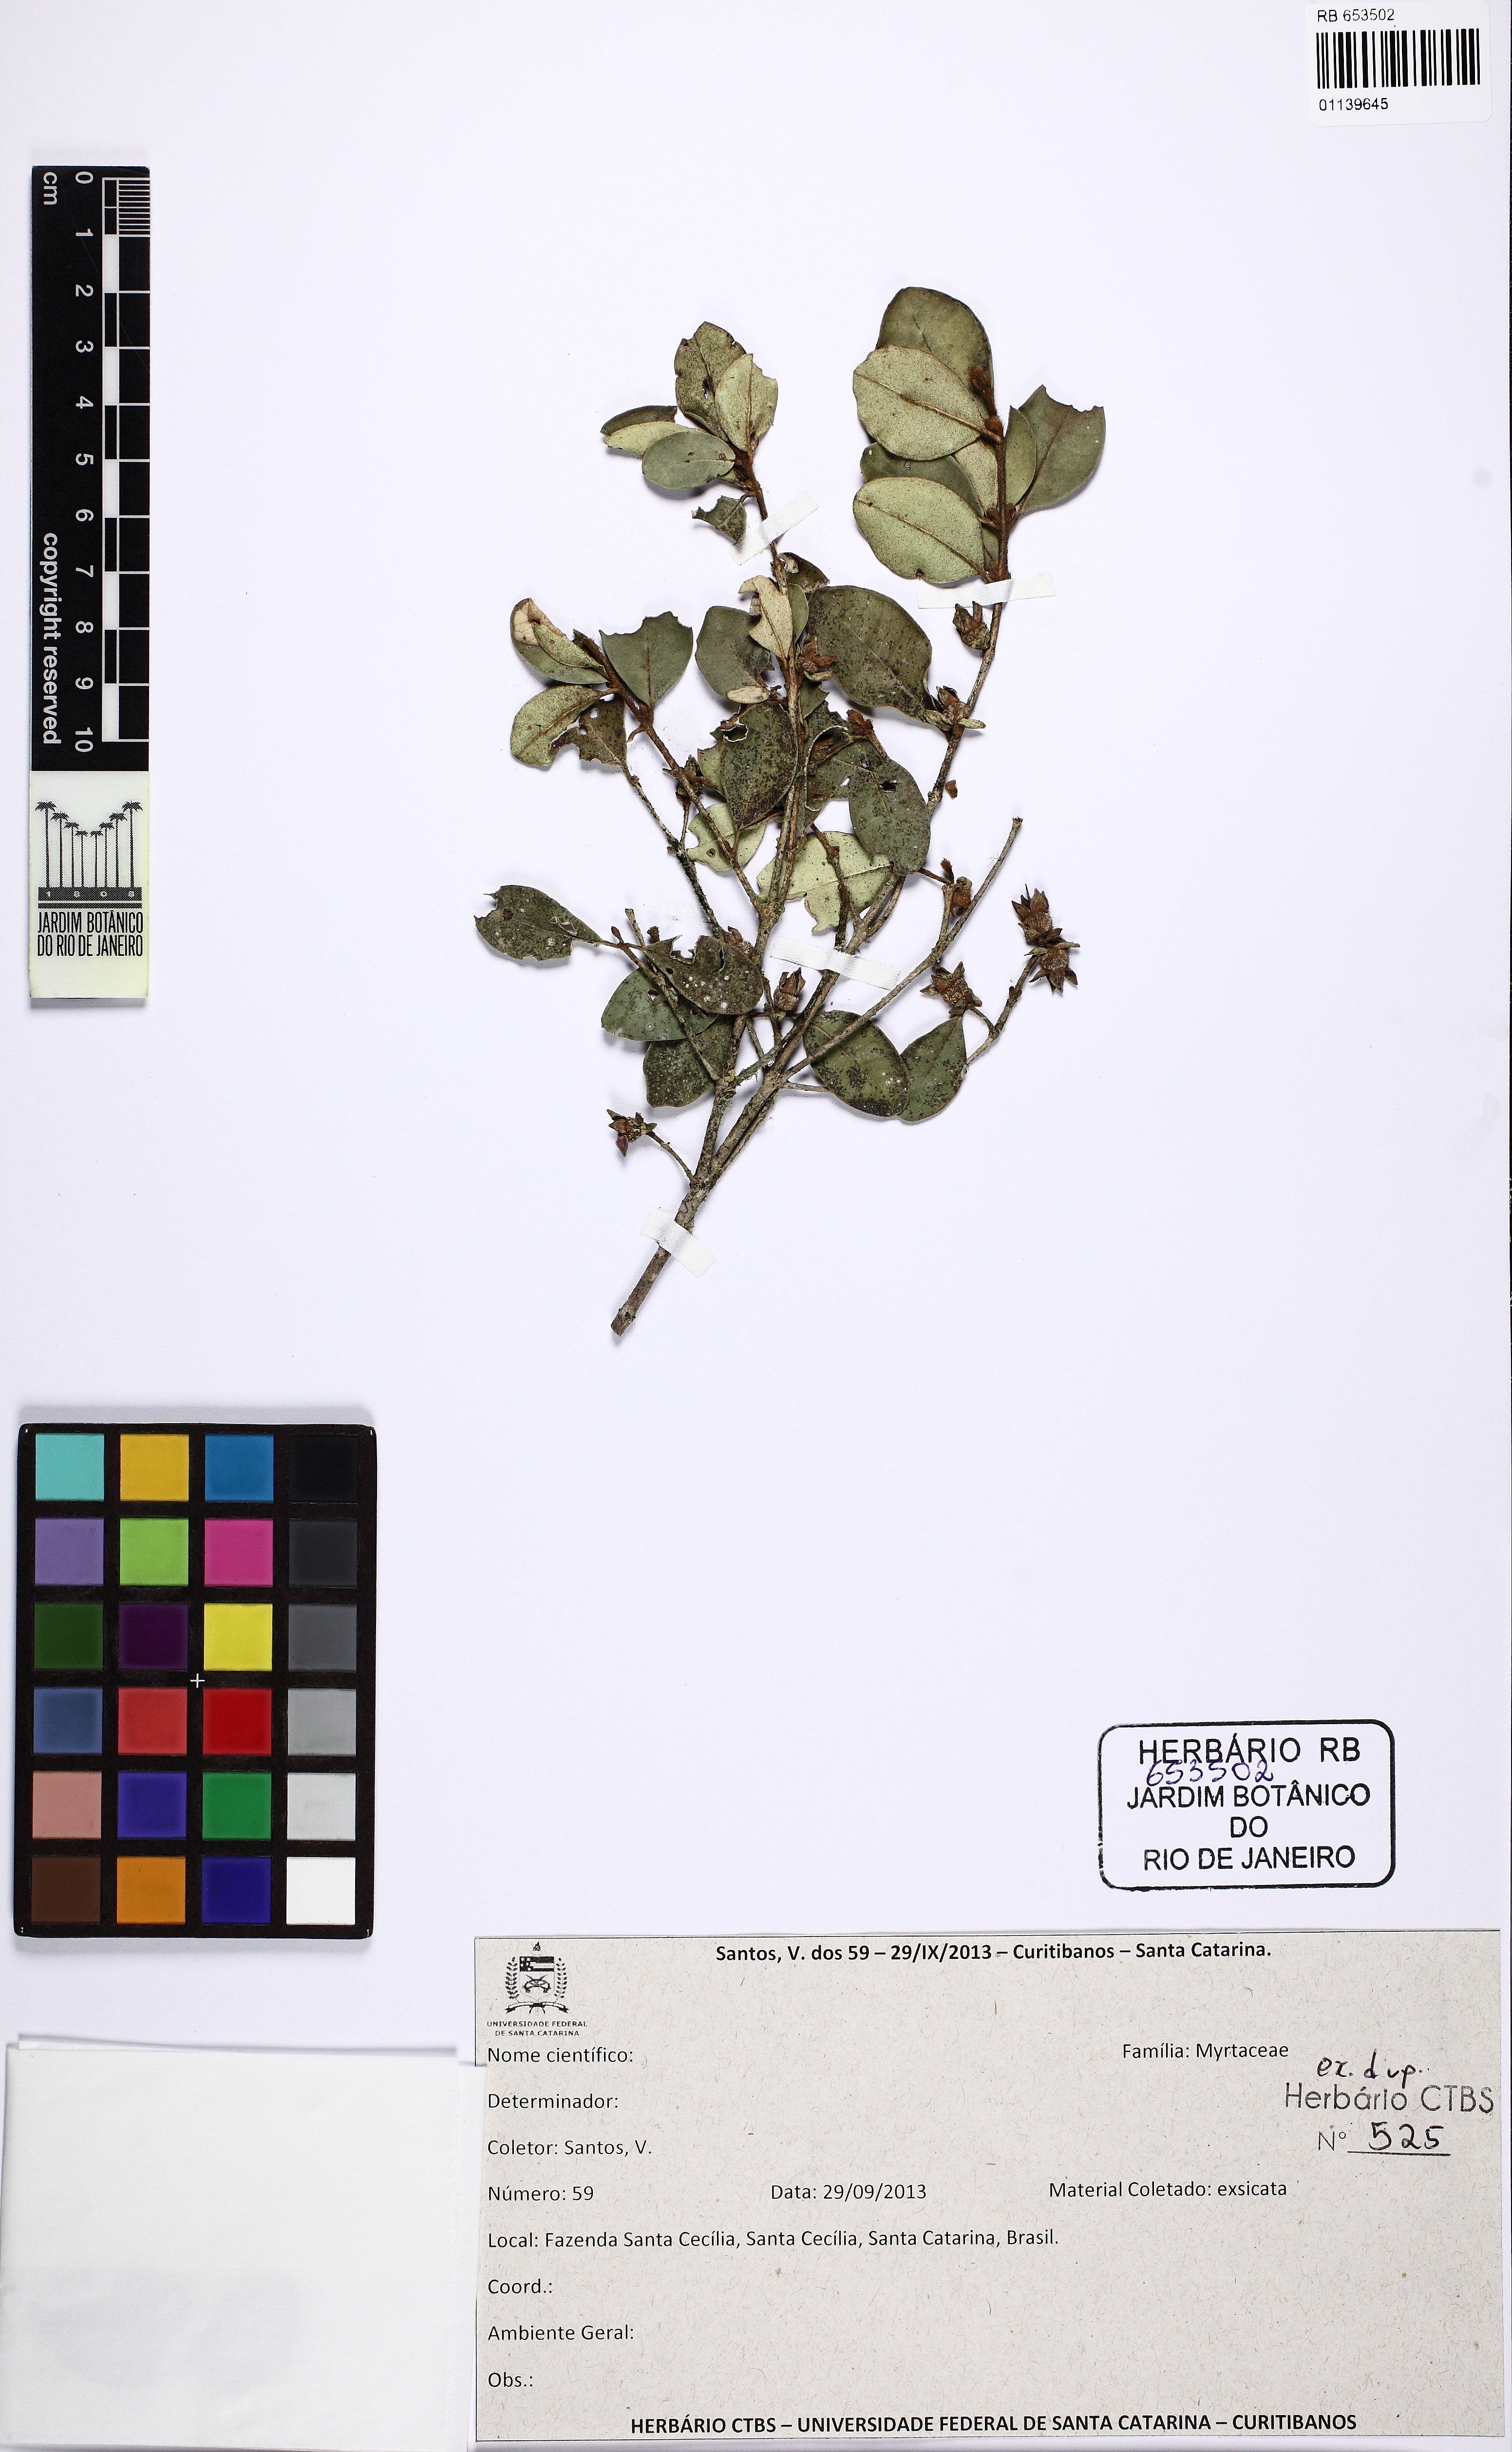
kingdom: Plantae
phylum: Tracheophyta
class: Magnoliopsida
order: Myrtales
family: Myrtaceae
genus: Myrceugenia
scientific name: Myrceugenia oxysepala
